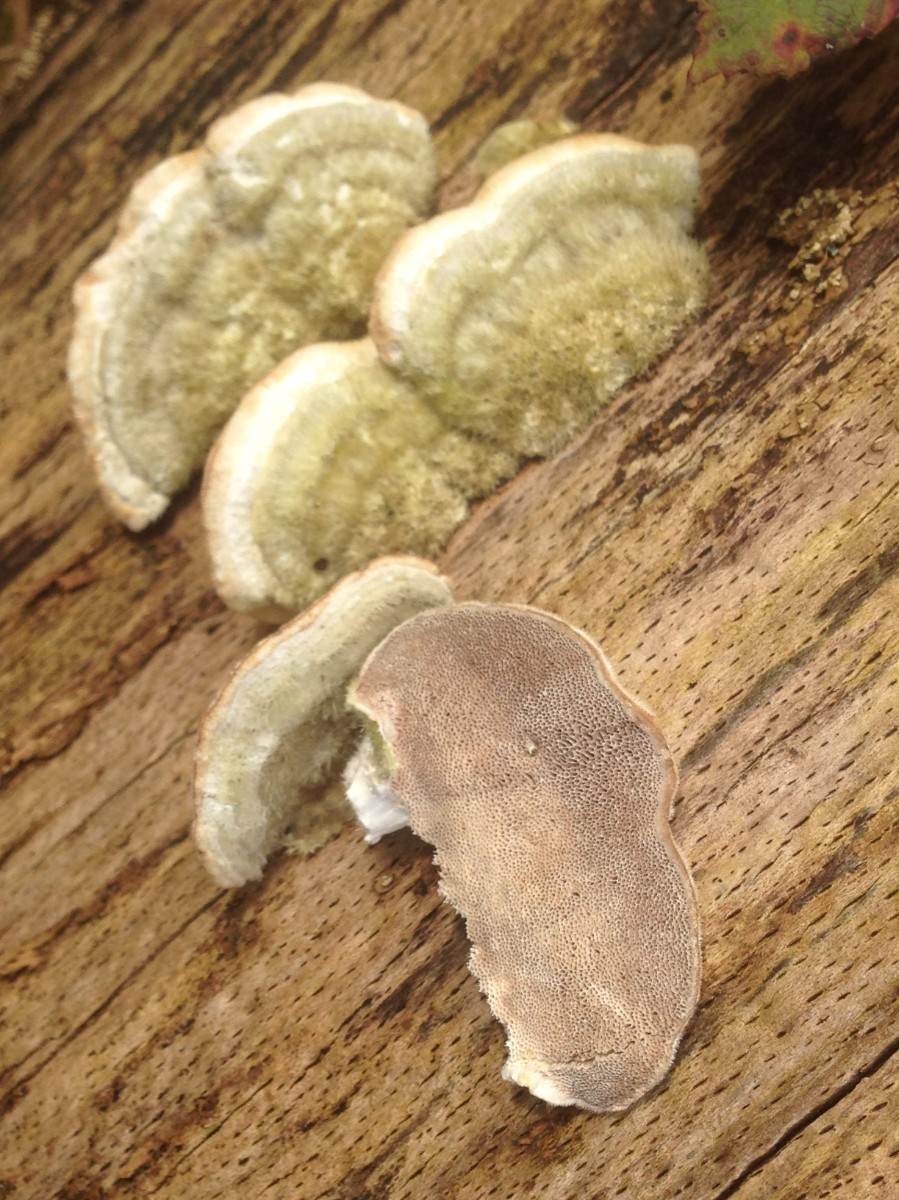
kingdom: Fungi
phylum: Basidiomycota
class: Agaricomycetes
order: Polyporales
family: Polyporaceae
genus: Trametes
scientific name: Trametes hirsuta
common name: håret læderporesvamp
